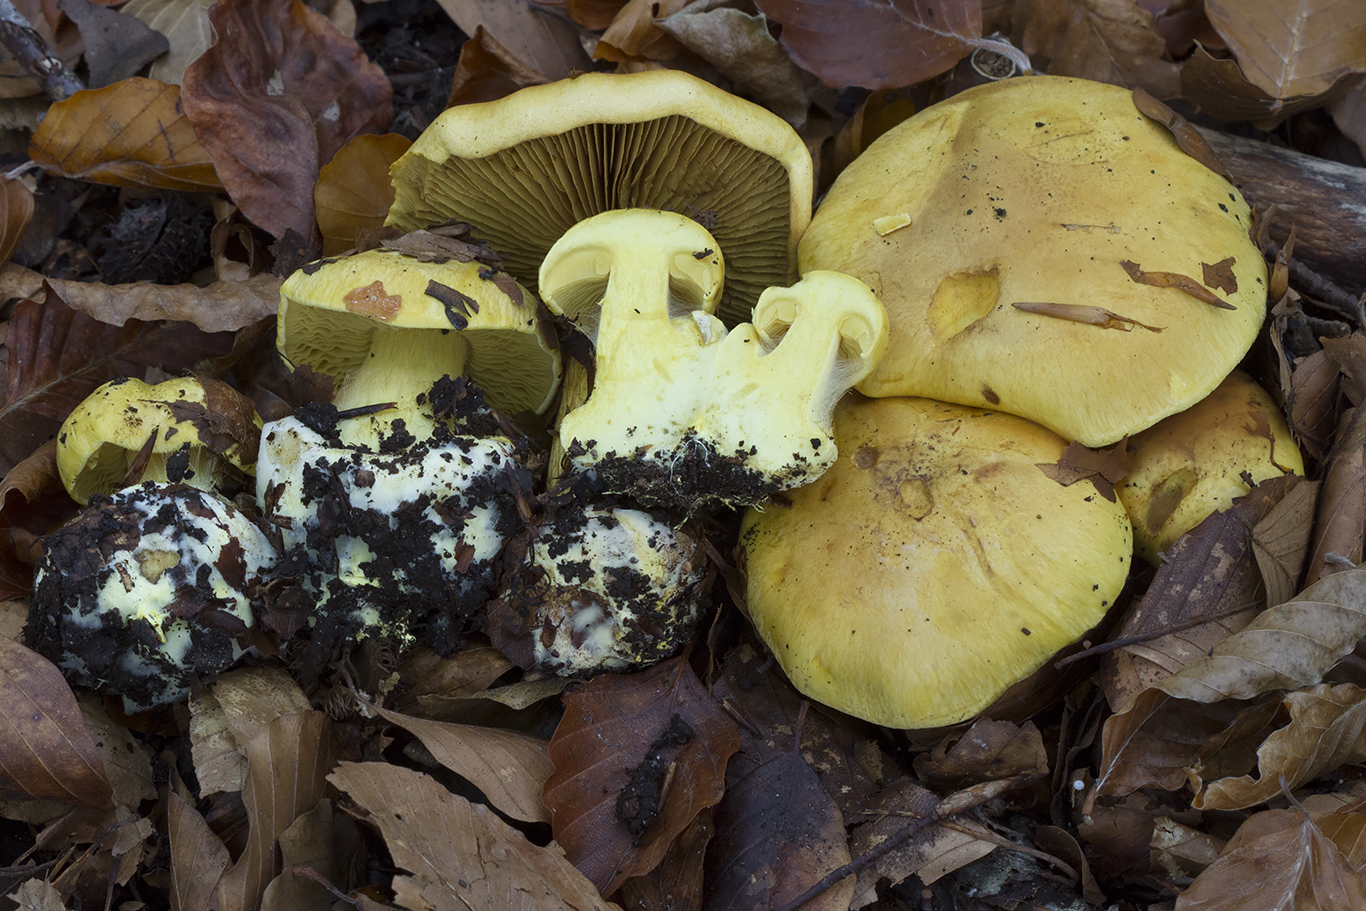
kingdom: Fungi
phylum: Basidiomycota
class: Agaricomycetes
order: Agaricales
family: Cortinariaceae
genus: Calonarius
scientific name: Calonarius splendens
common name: sirene-slørhat
